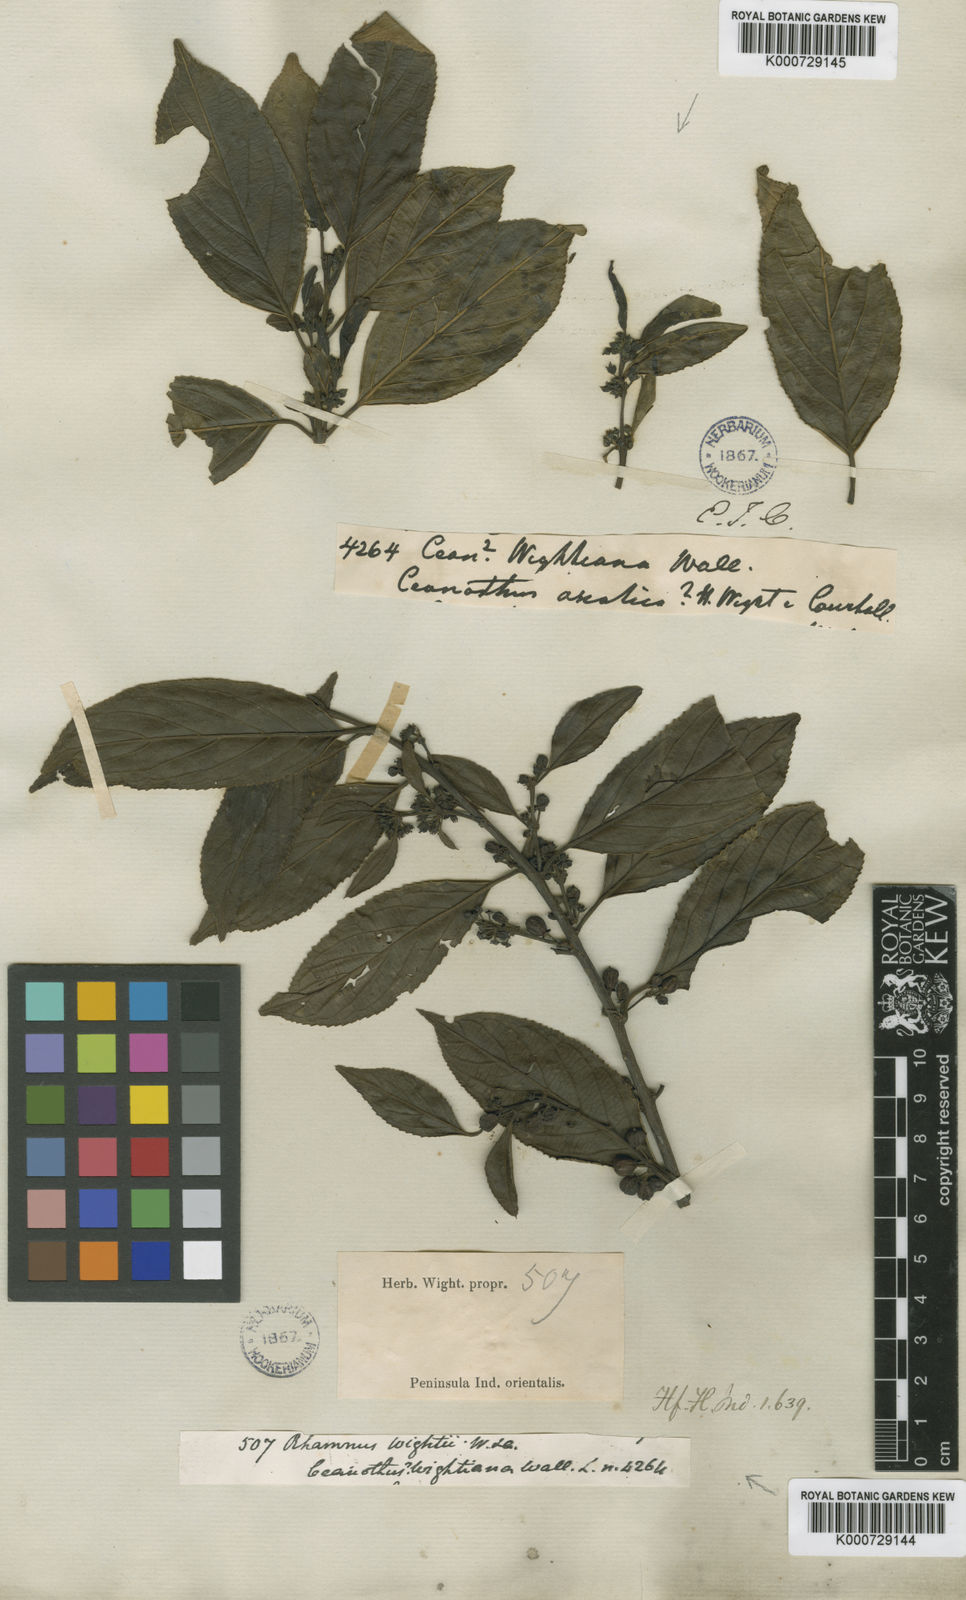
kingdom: Plantae
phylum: Tracheophyta
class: Magnoliopsida
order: Rosales
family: Rhamnaceae
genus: Rhamnus
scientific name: Rhamnus wightii
